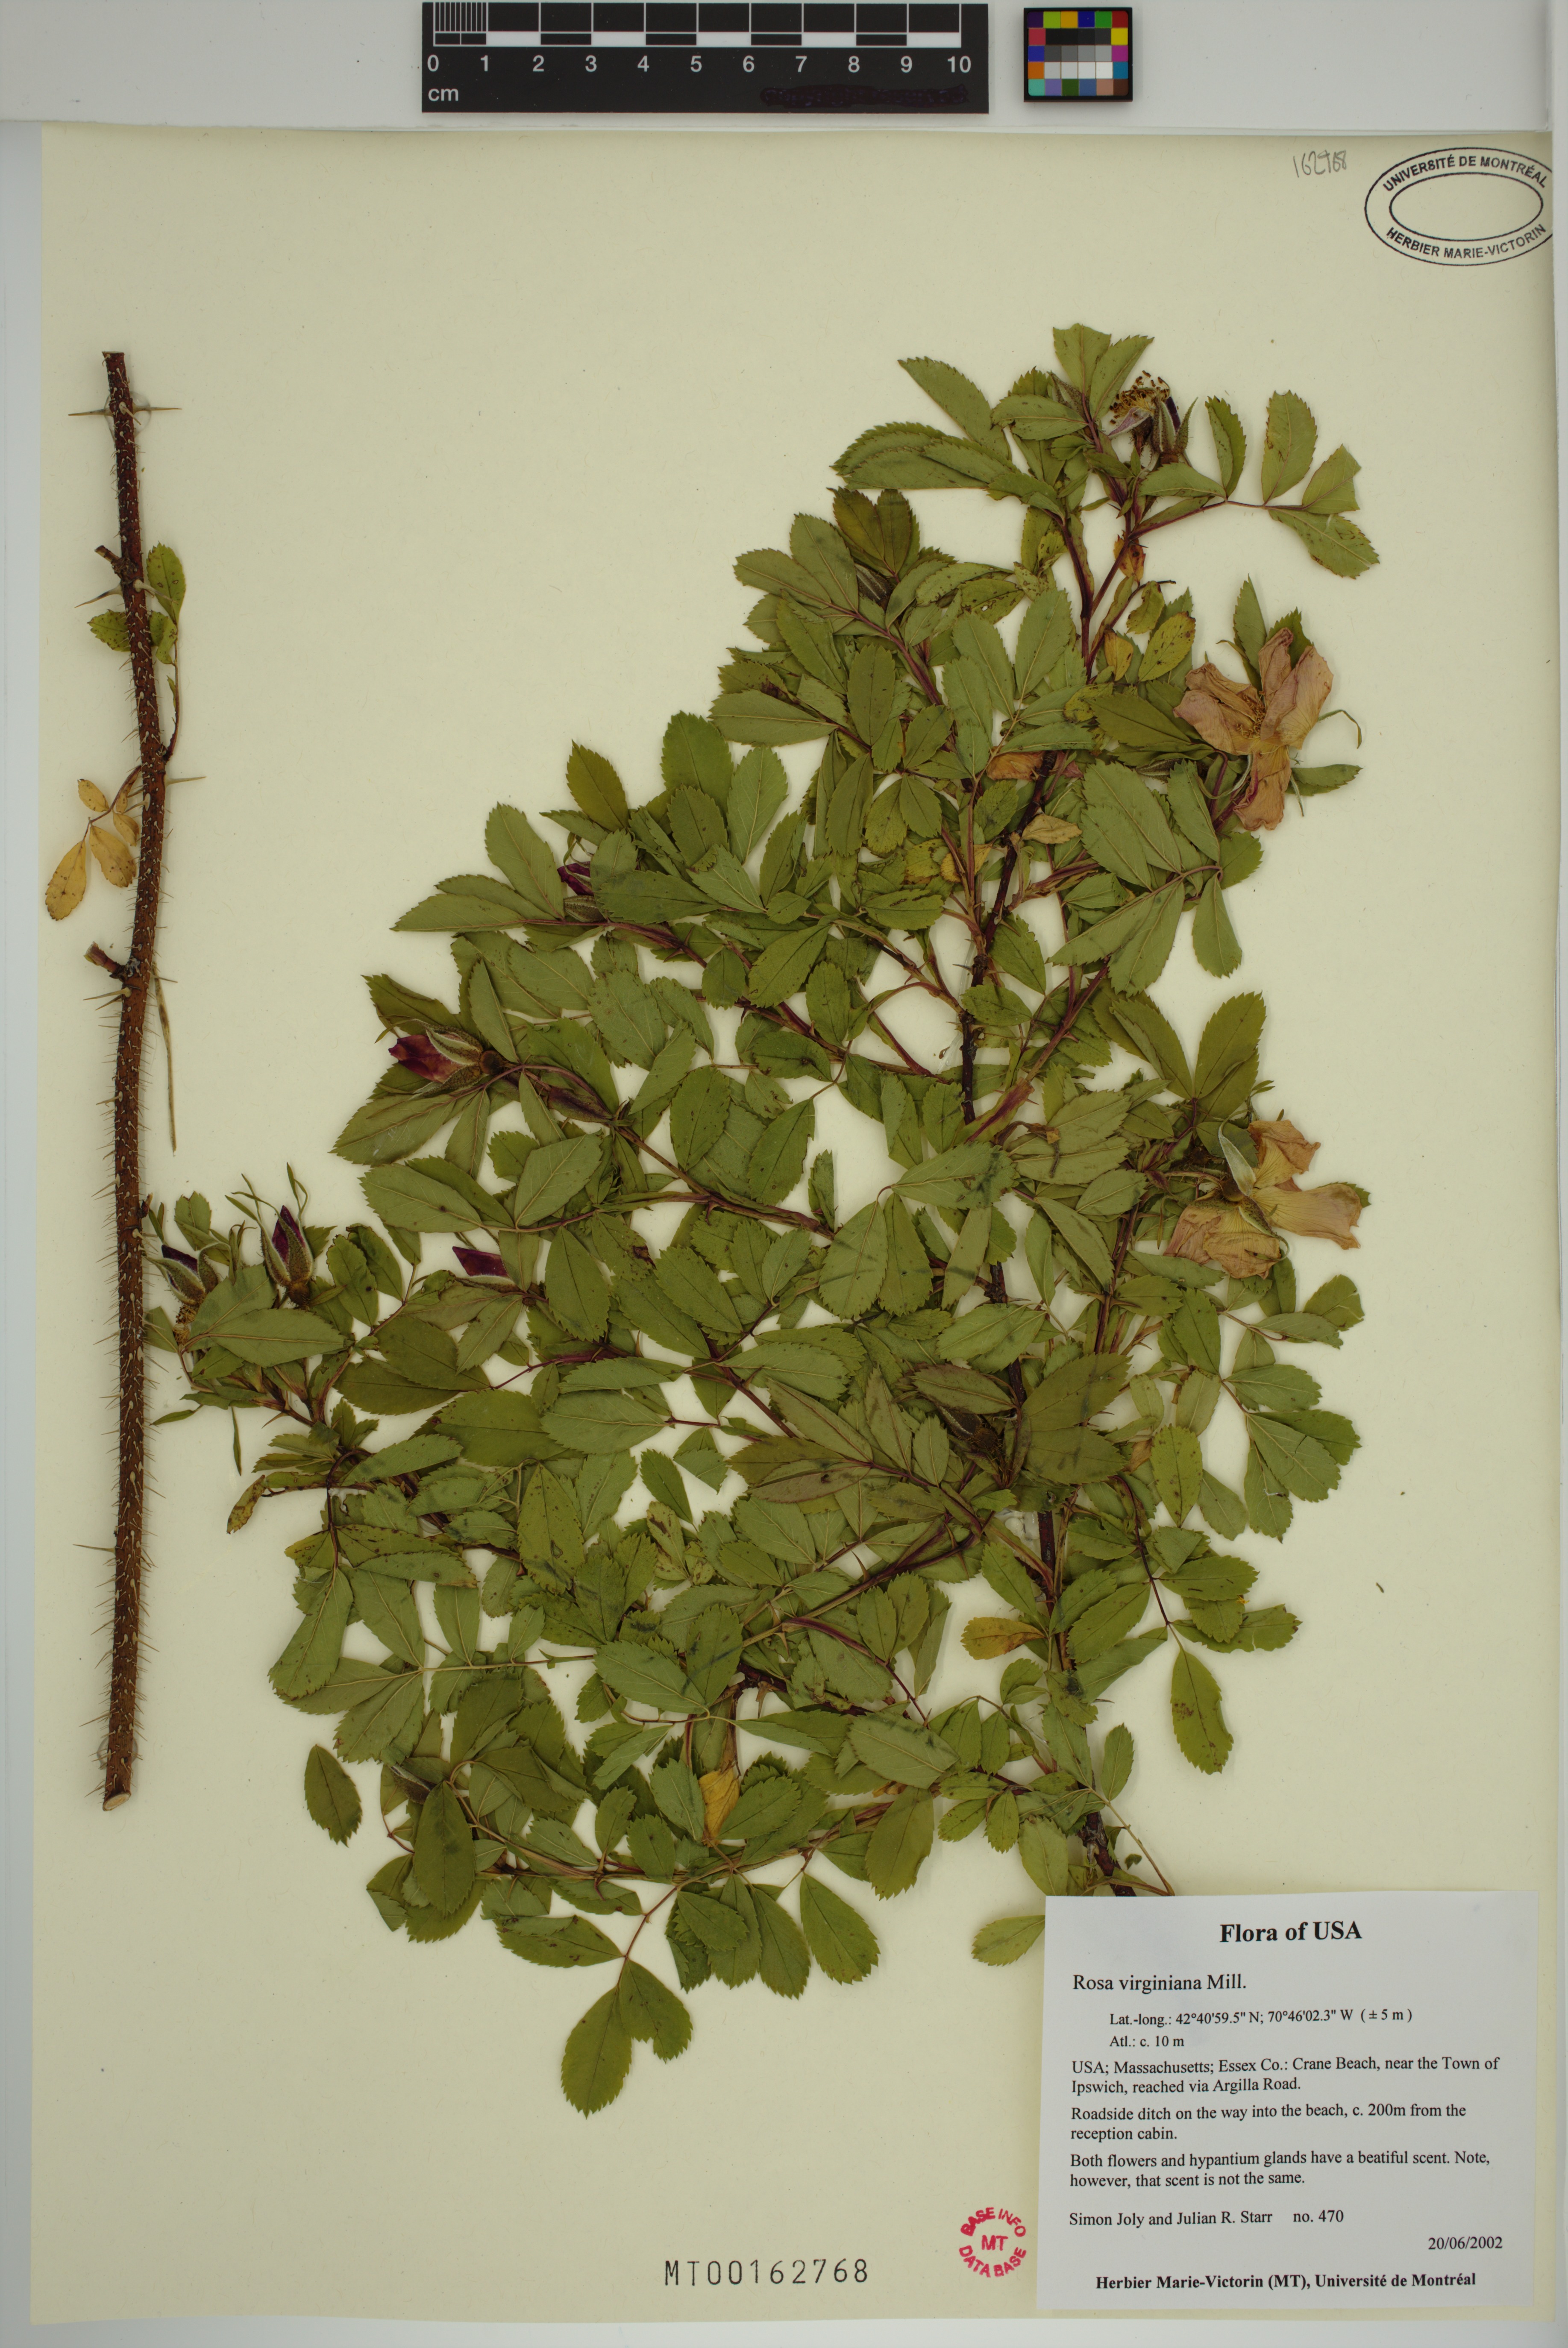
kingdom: Plantae
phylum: Tracheophyta
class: Magnoliopsida
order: Rosales
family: Rosaceae
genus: Rosa
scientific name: Rosa carolina
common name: Pasture rose
